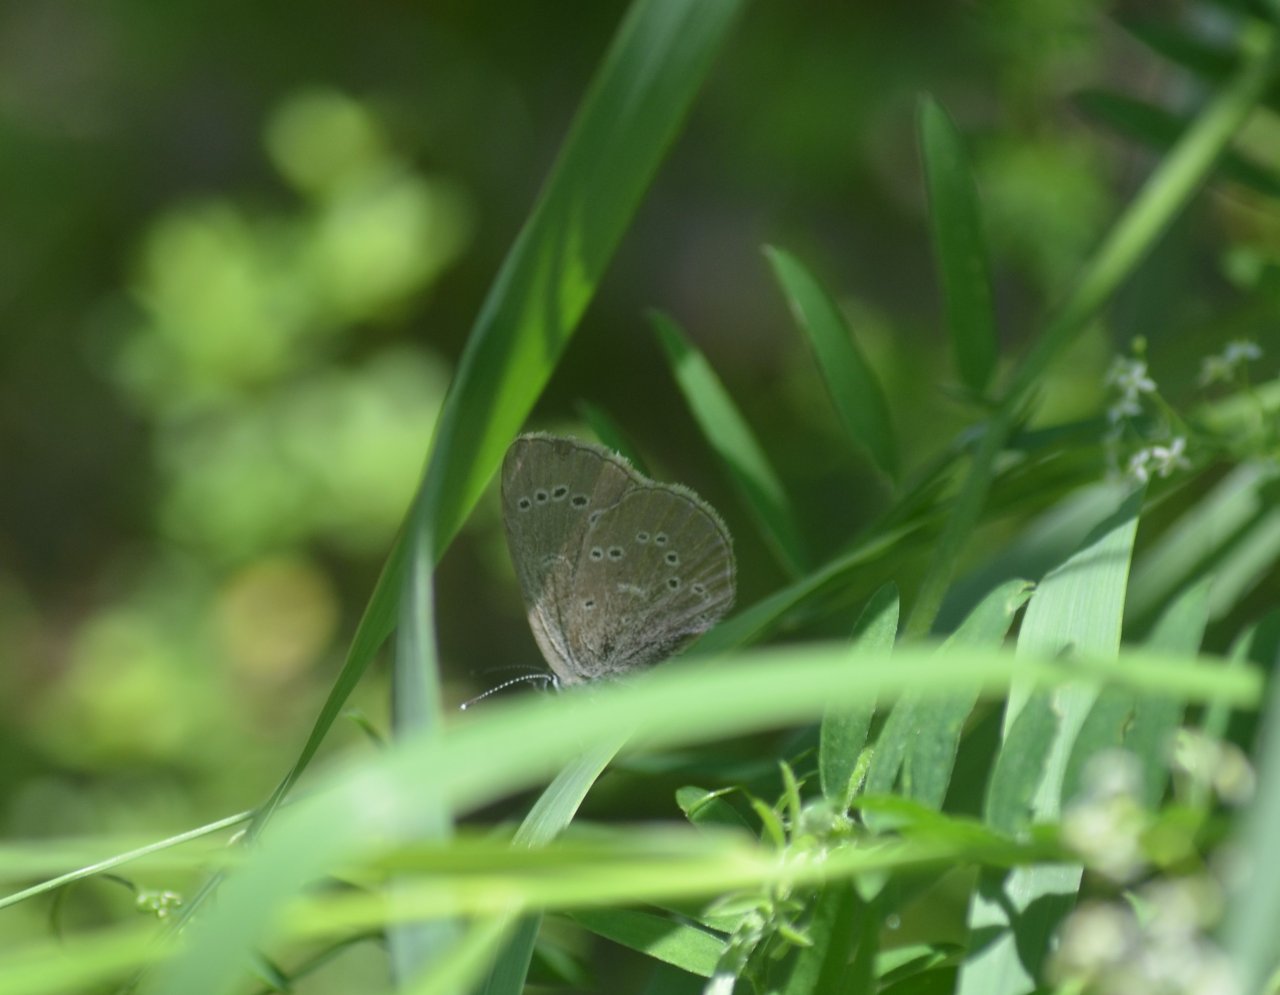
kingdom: Animalia
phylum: Arthropoda
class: Insecta
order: Lepidoptera
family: Lycaenidae
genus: Glaucopsyche
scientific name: Glaucopsyche lygdamus
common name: Silvery Blue
